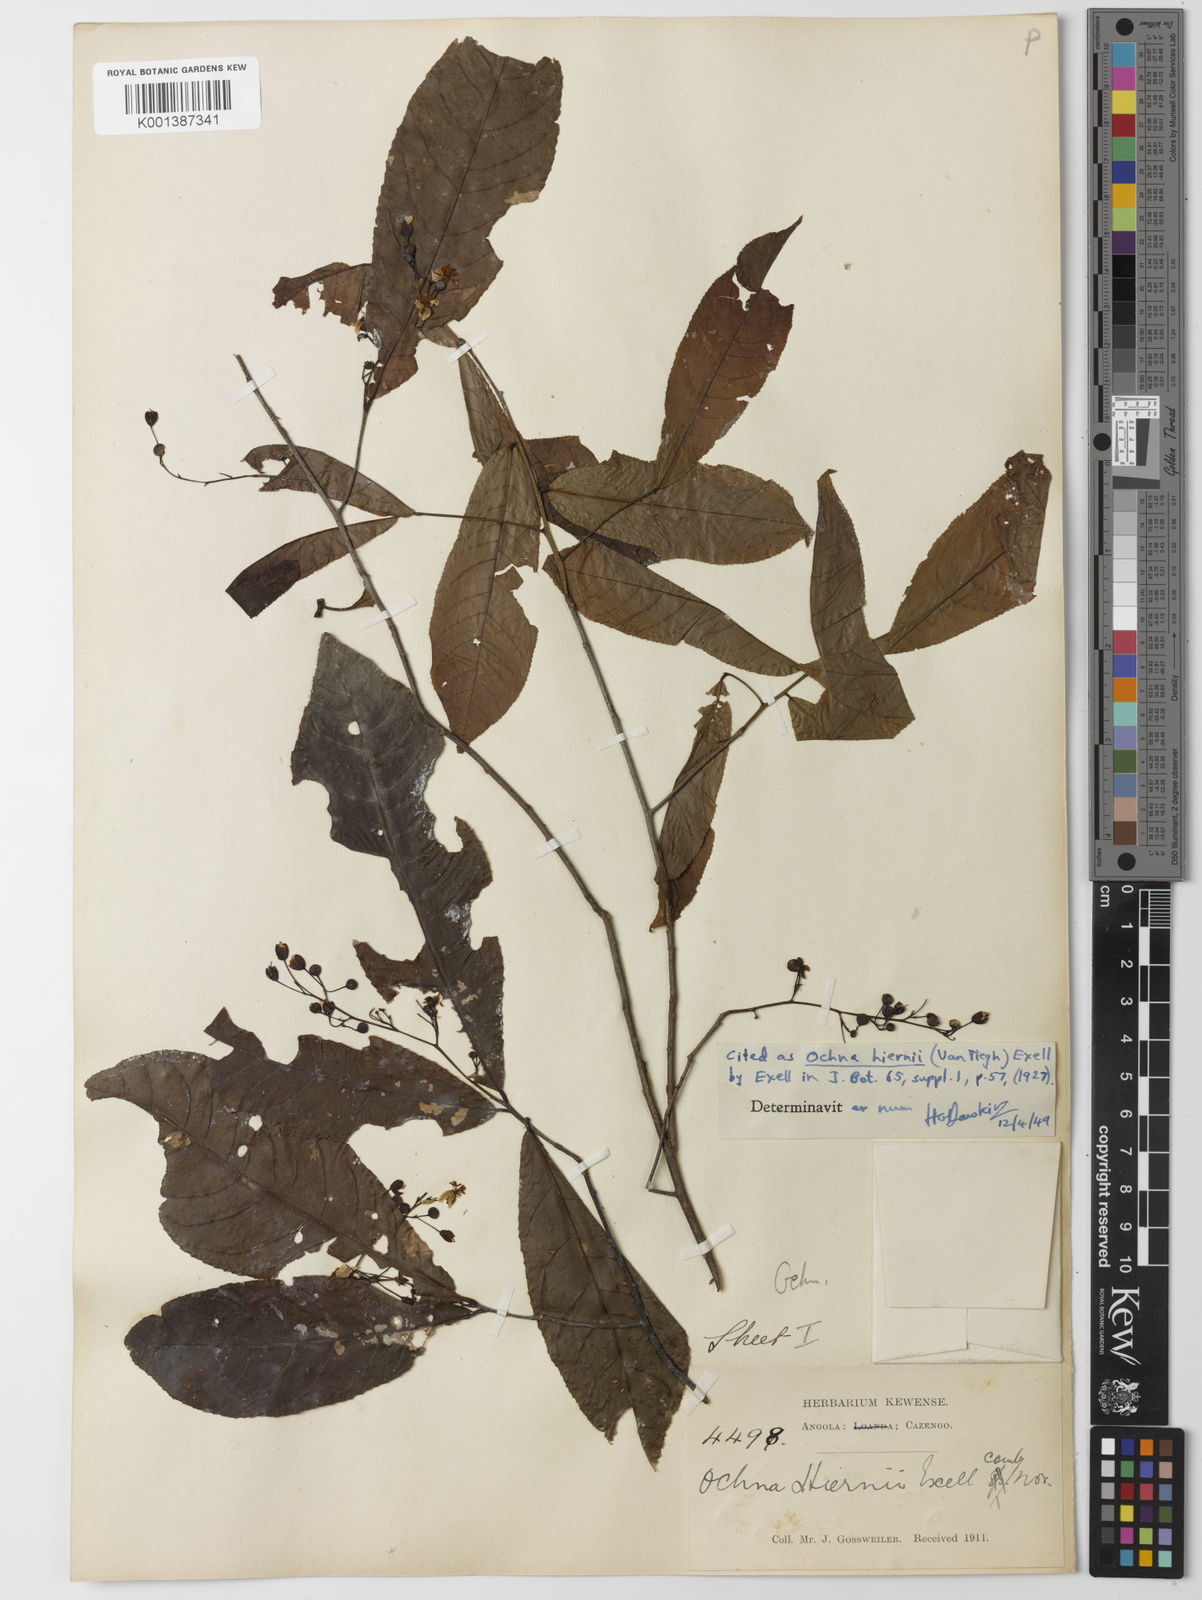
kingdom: Plantae
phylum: Tracheophyta
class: Magnoliopsida
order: Malpighiales
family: Ochnaceae
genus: Ochna
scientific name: Ochna membranacea
